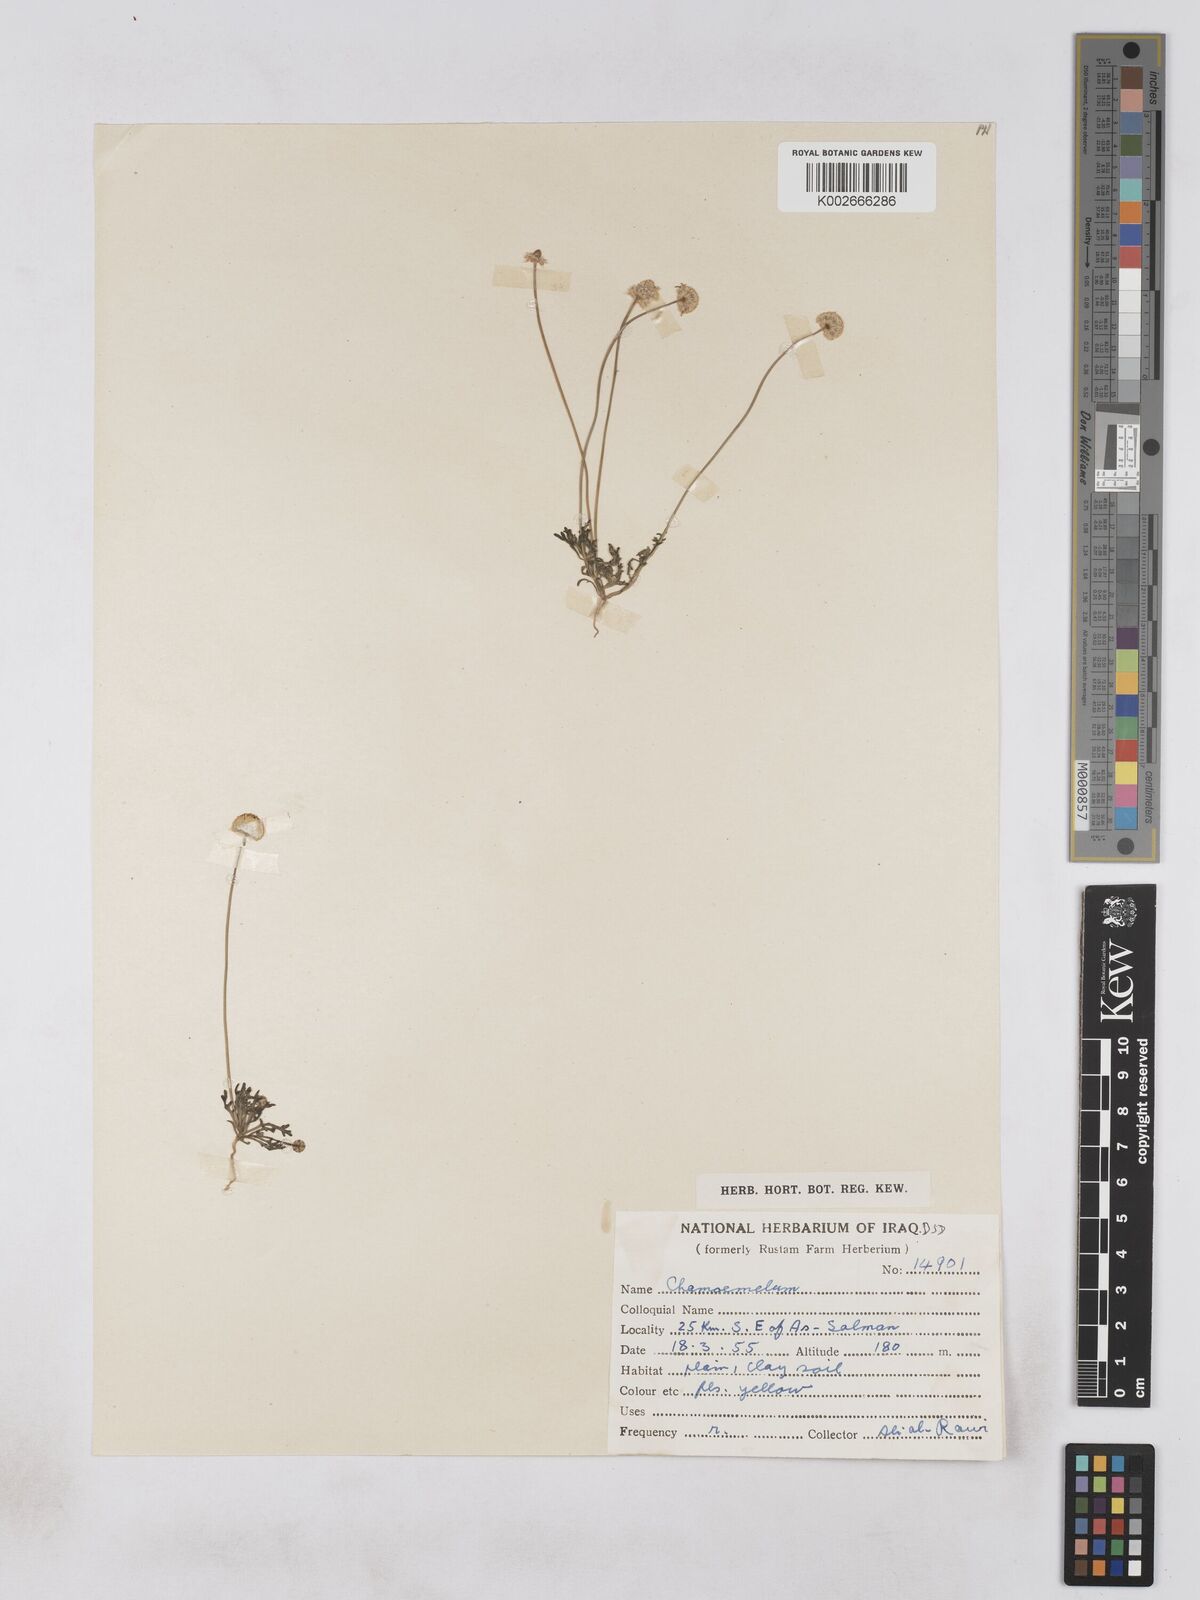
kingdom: Plantae
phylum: Tracheophyta
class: Magnoliopsida
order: Asterales
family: Asteraceae
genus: Otoglyphis
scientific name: Otoglyphis factorovskyi
